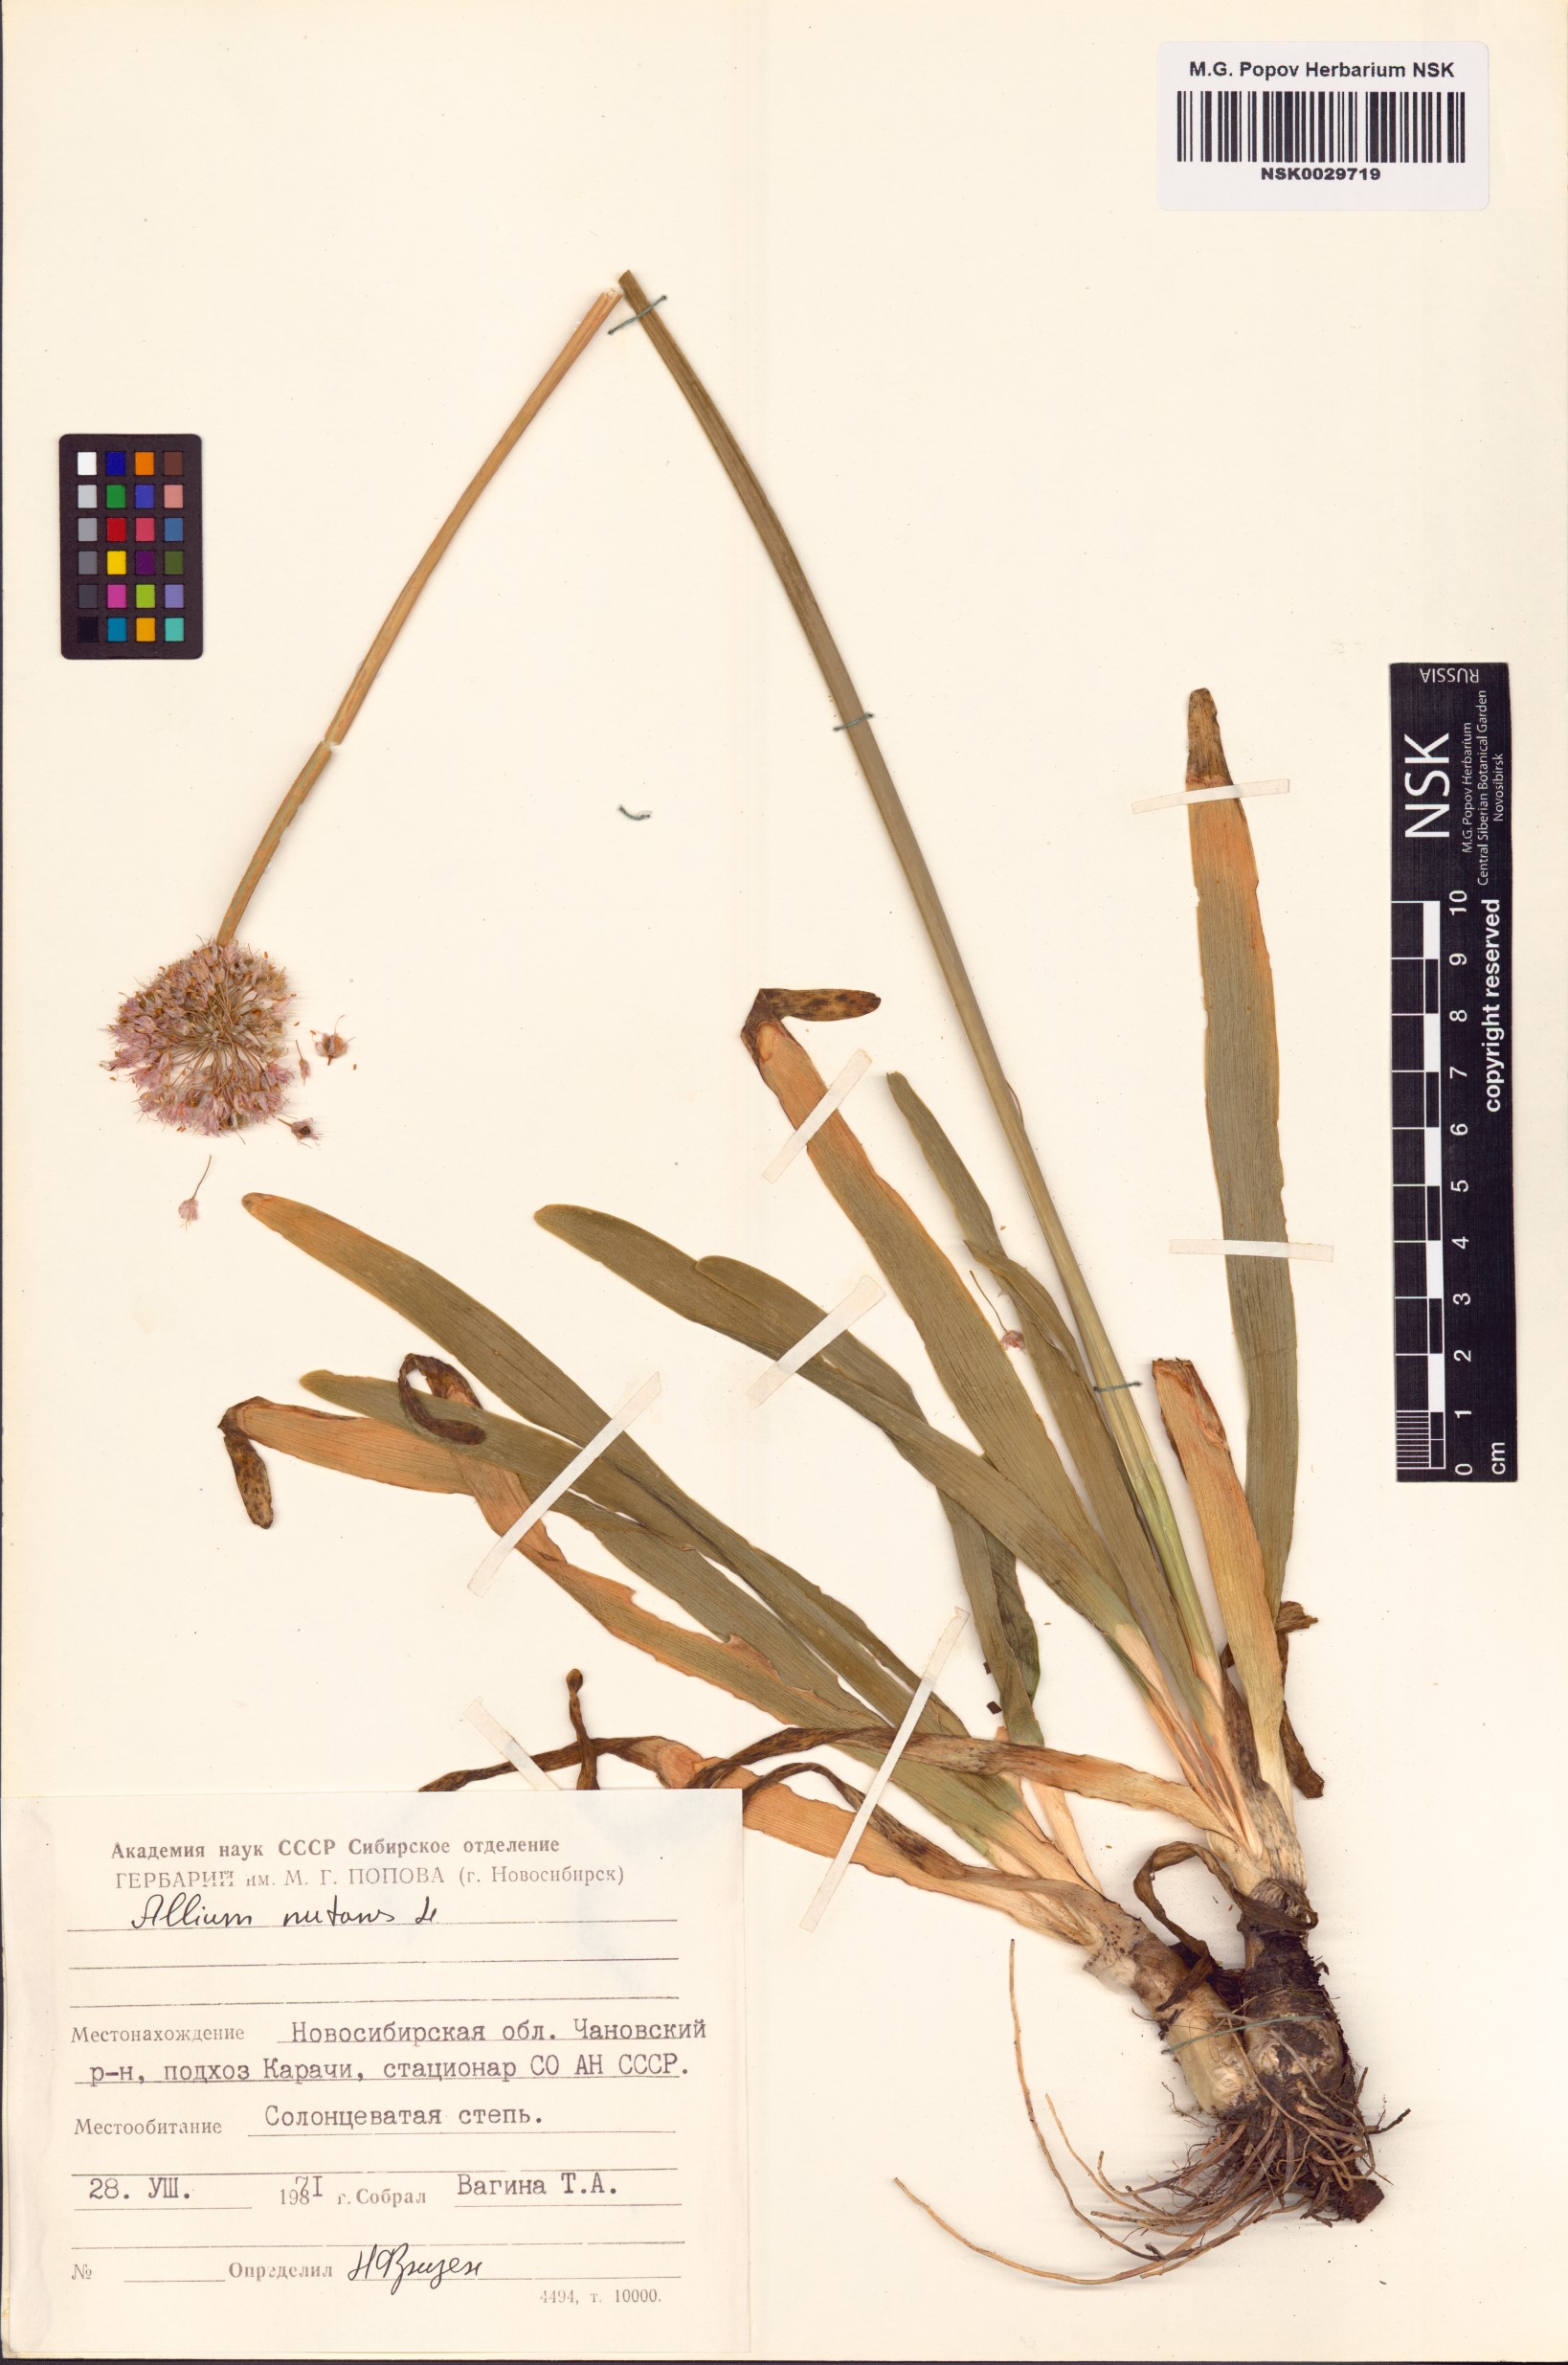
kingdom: Plantae
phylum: Tracheophyta
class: Liliopsida
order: Asparagales
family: Amaryllidaceae
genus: Allium
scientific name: Allium nutans
